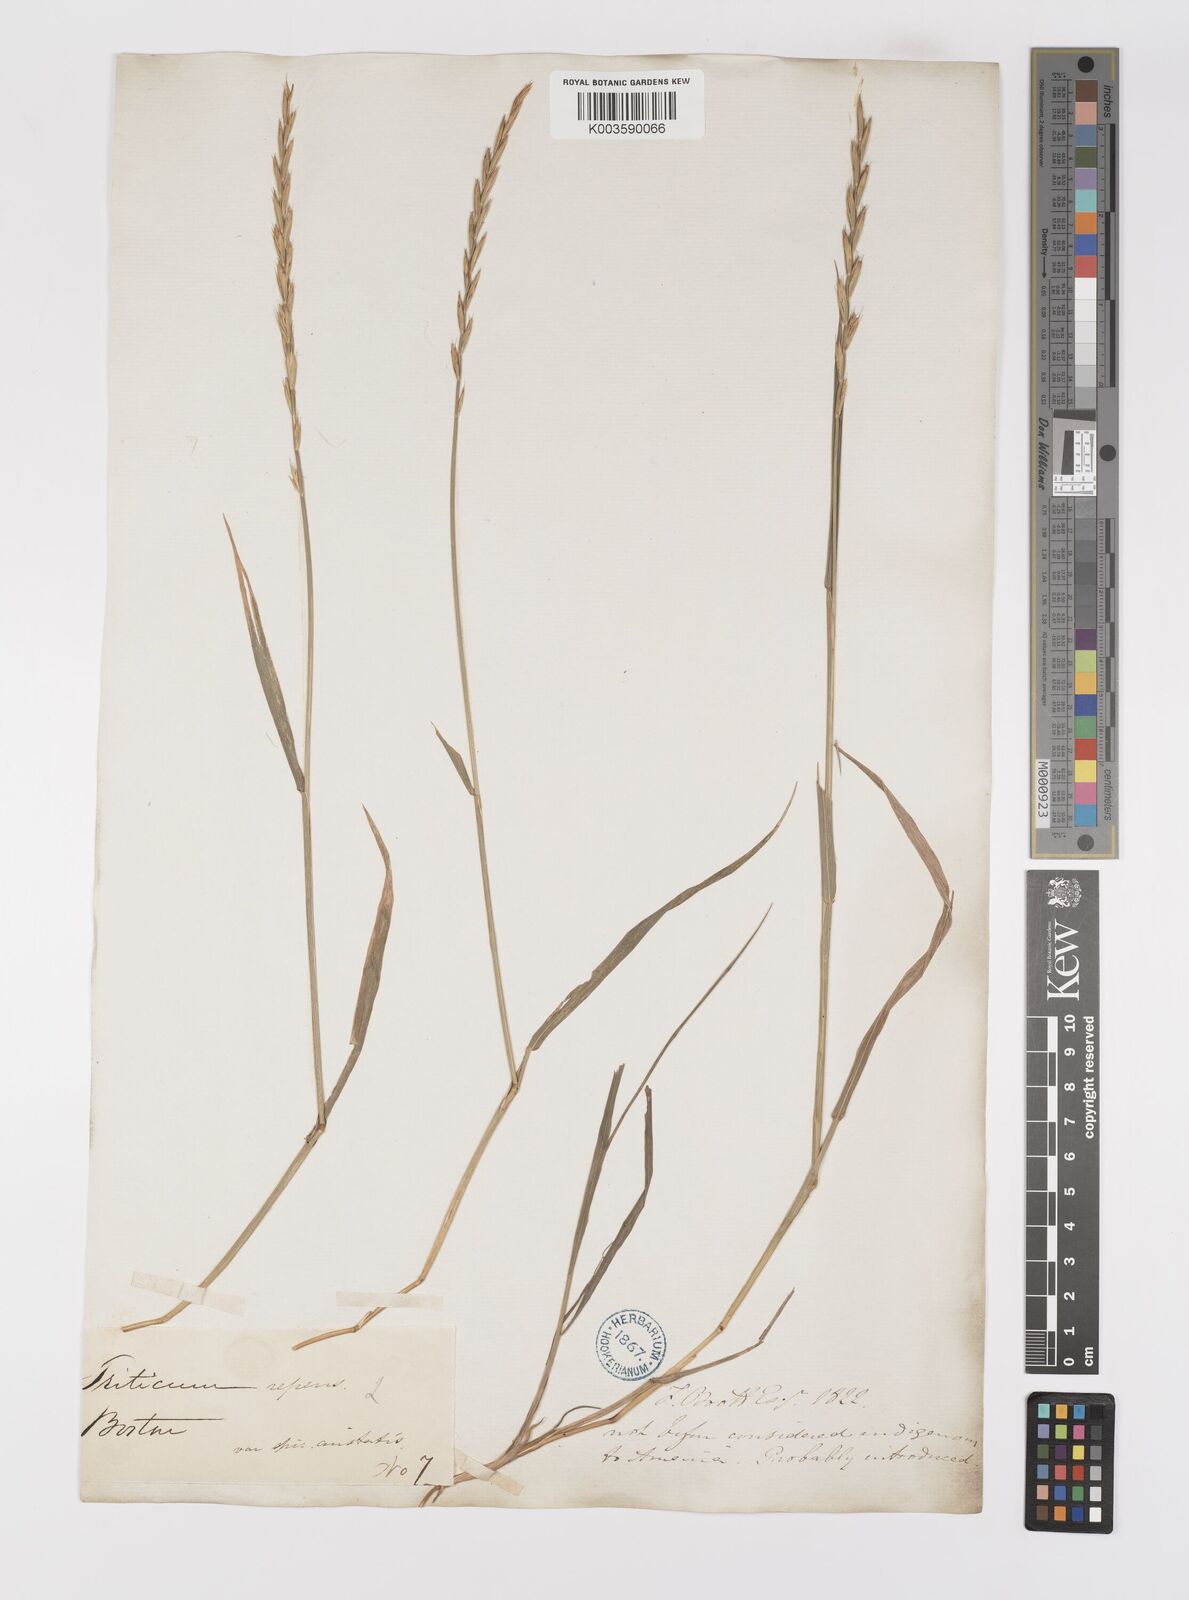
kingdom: Plantae
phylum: Tracheophyta
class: Liliopsida
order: Poales
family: Poaceae
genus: Elymus
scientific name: Elymus repens
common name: Quackgrass
